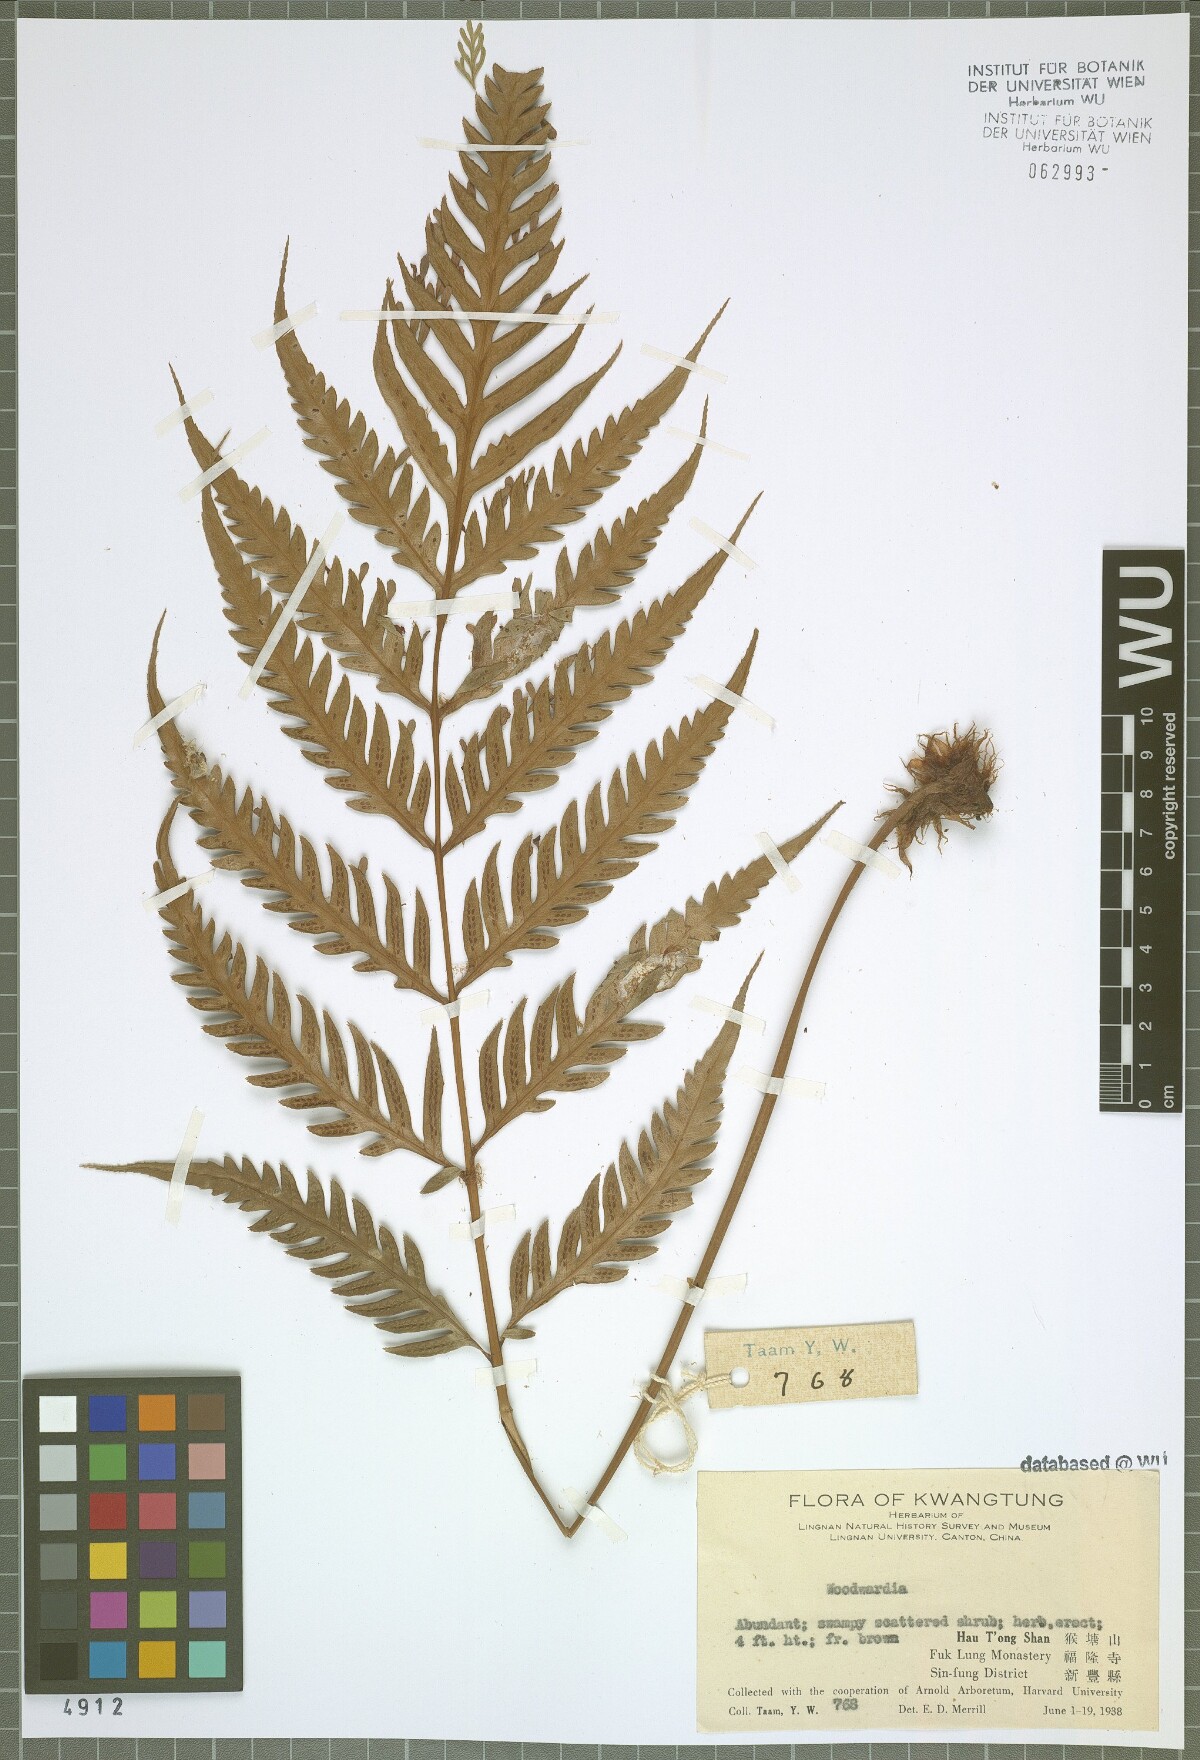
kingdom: Plantae
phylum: Tracheophyta
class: Polypodiopsida
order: Polypodiales
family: Blechnaceae
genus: Woodwardia
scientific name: Woodwardia
